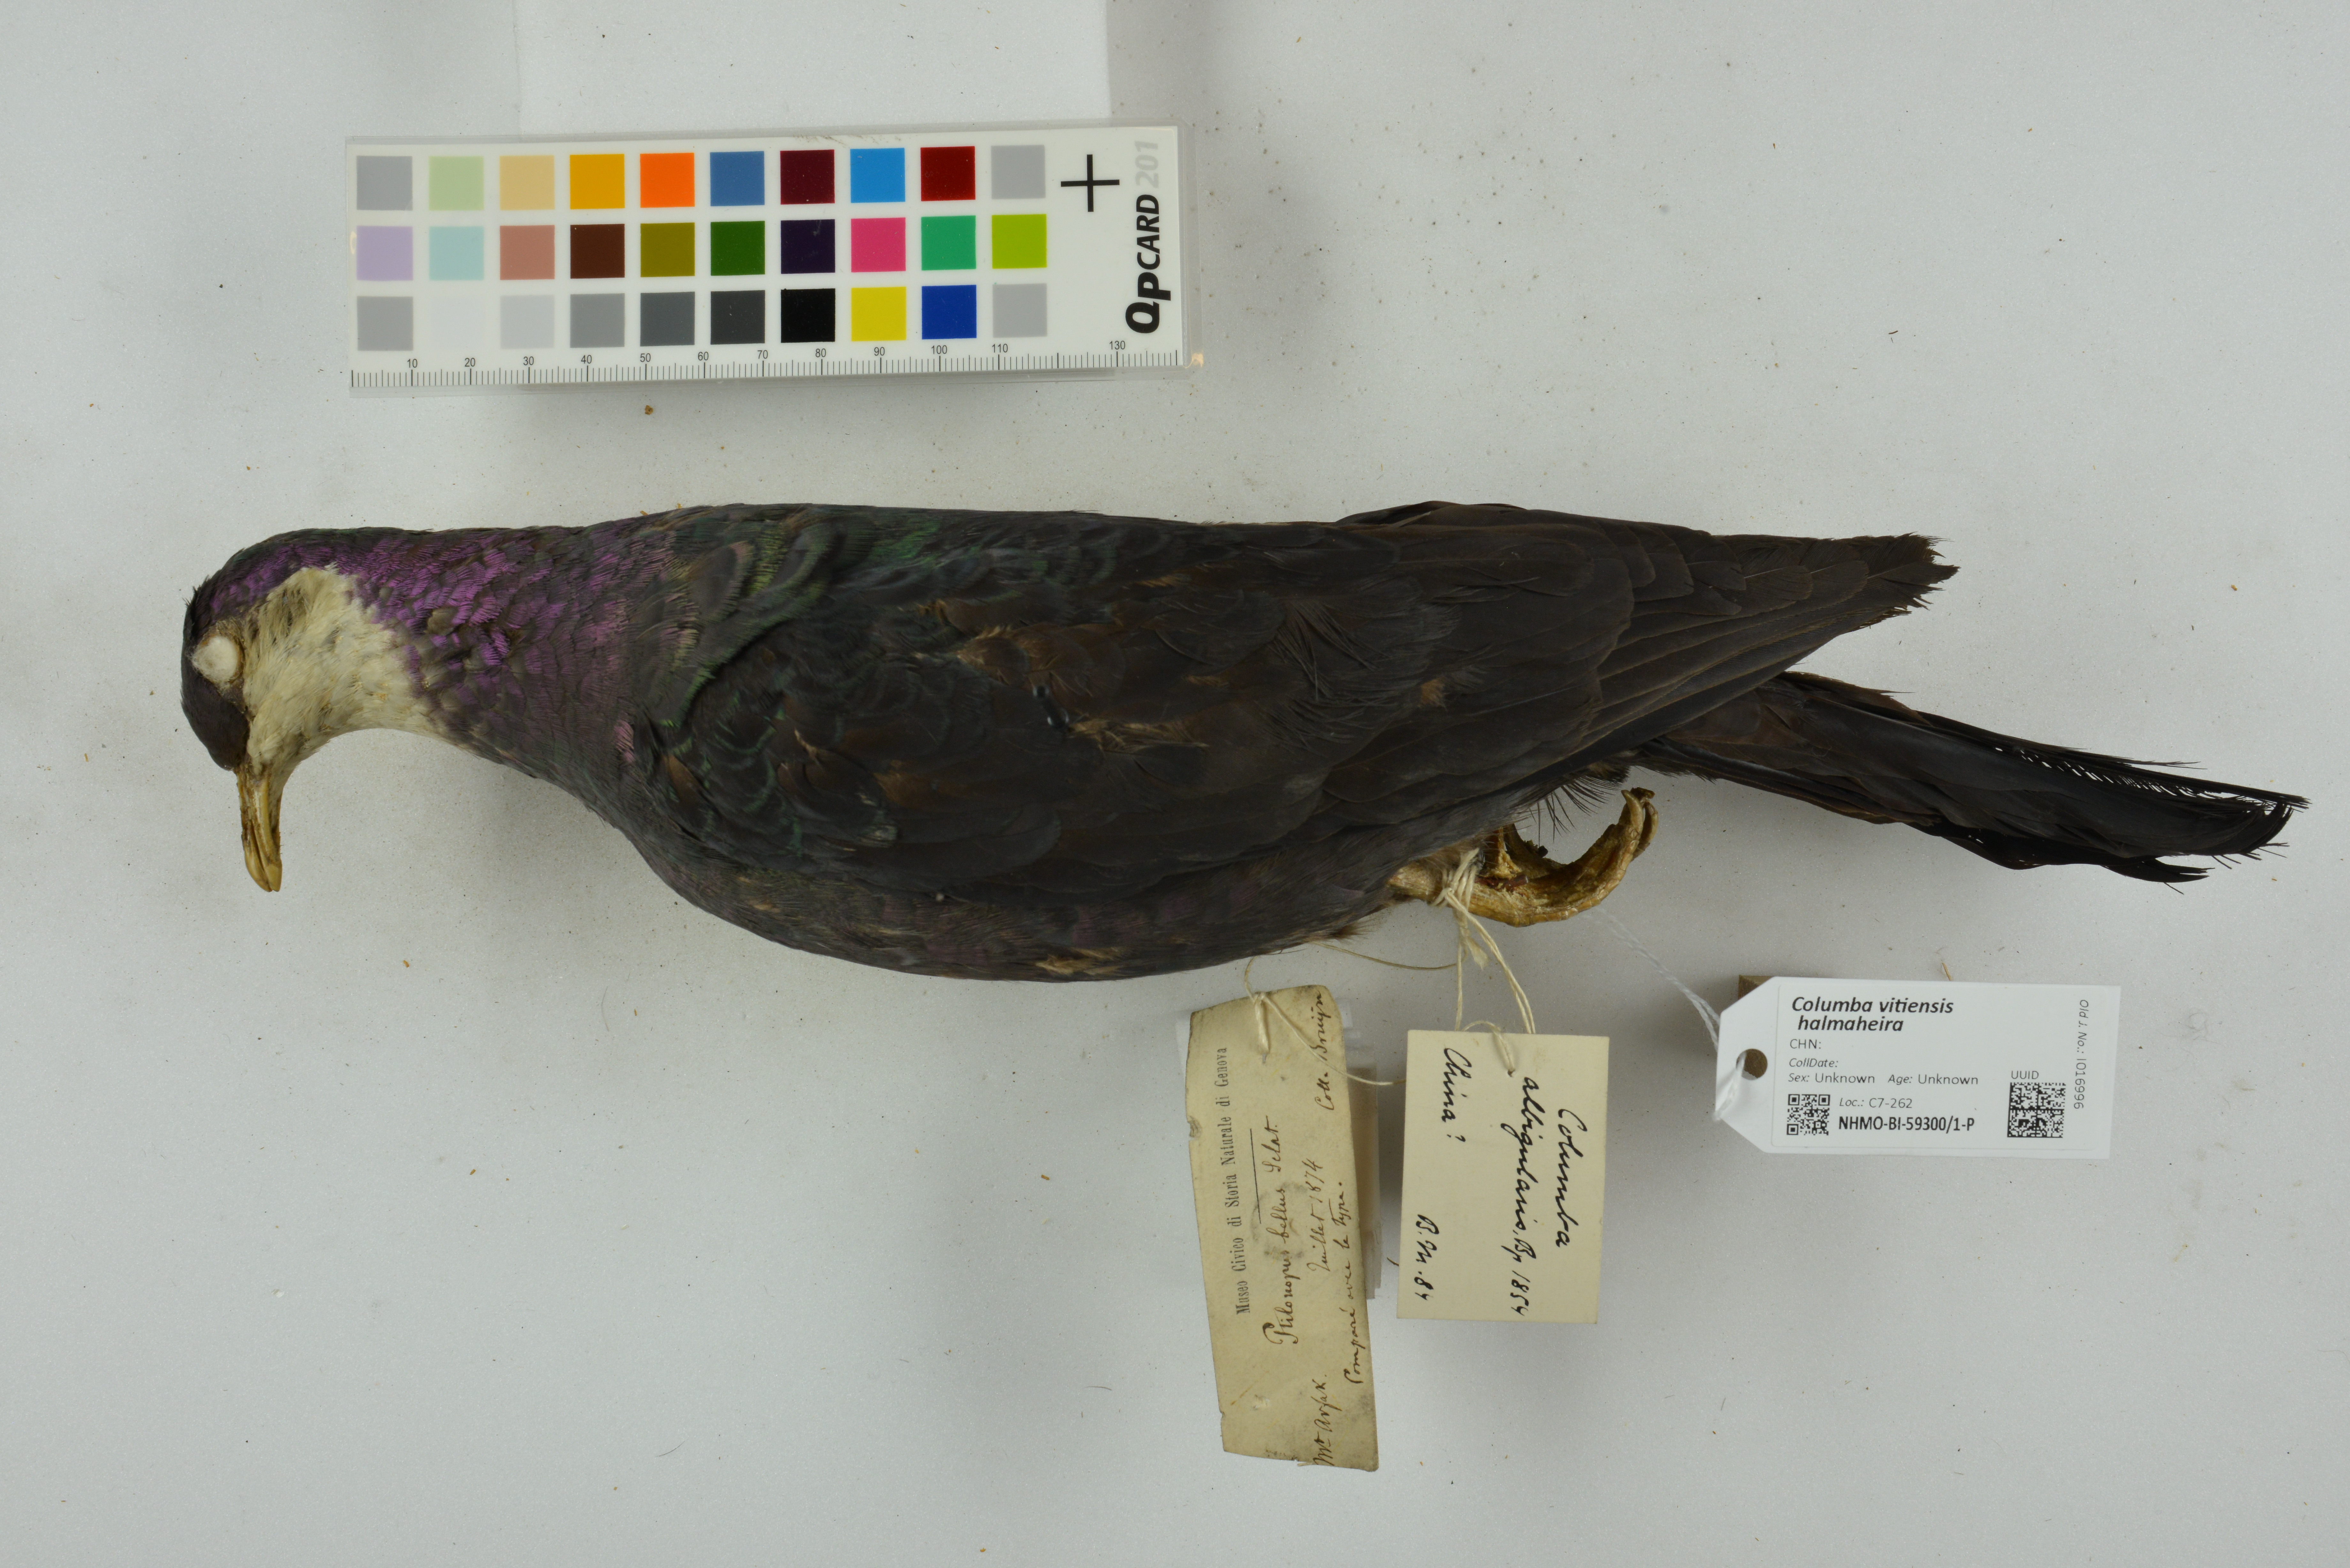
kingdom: Animalia
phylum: Chordata
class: Aves
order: Columbiformes
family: Columbidae
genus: Columba
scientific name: Columba vitiensis
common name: Metallic pigeon
